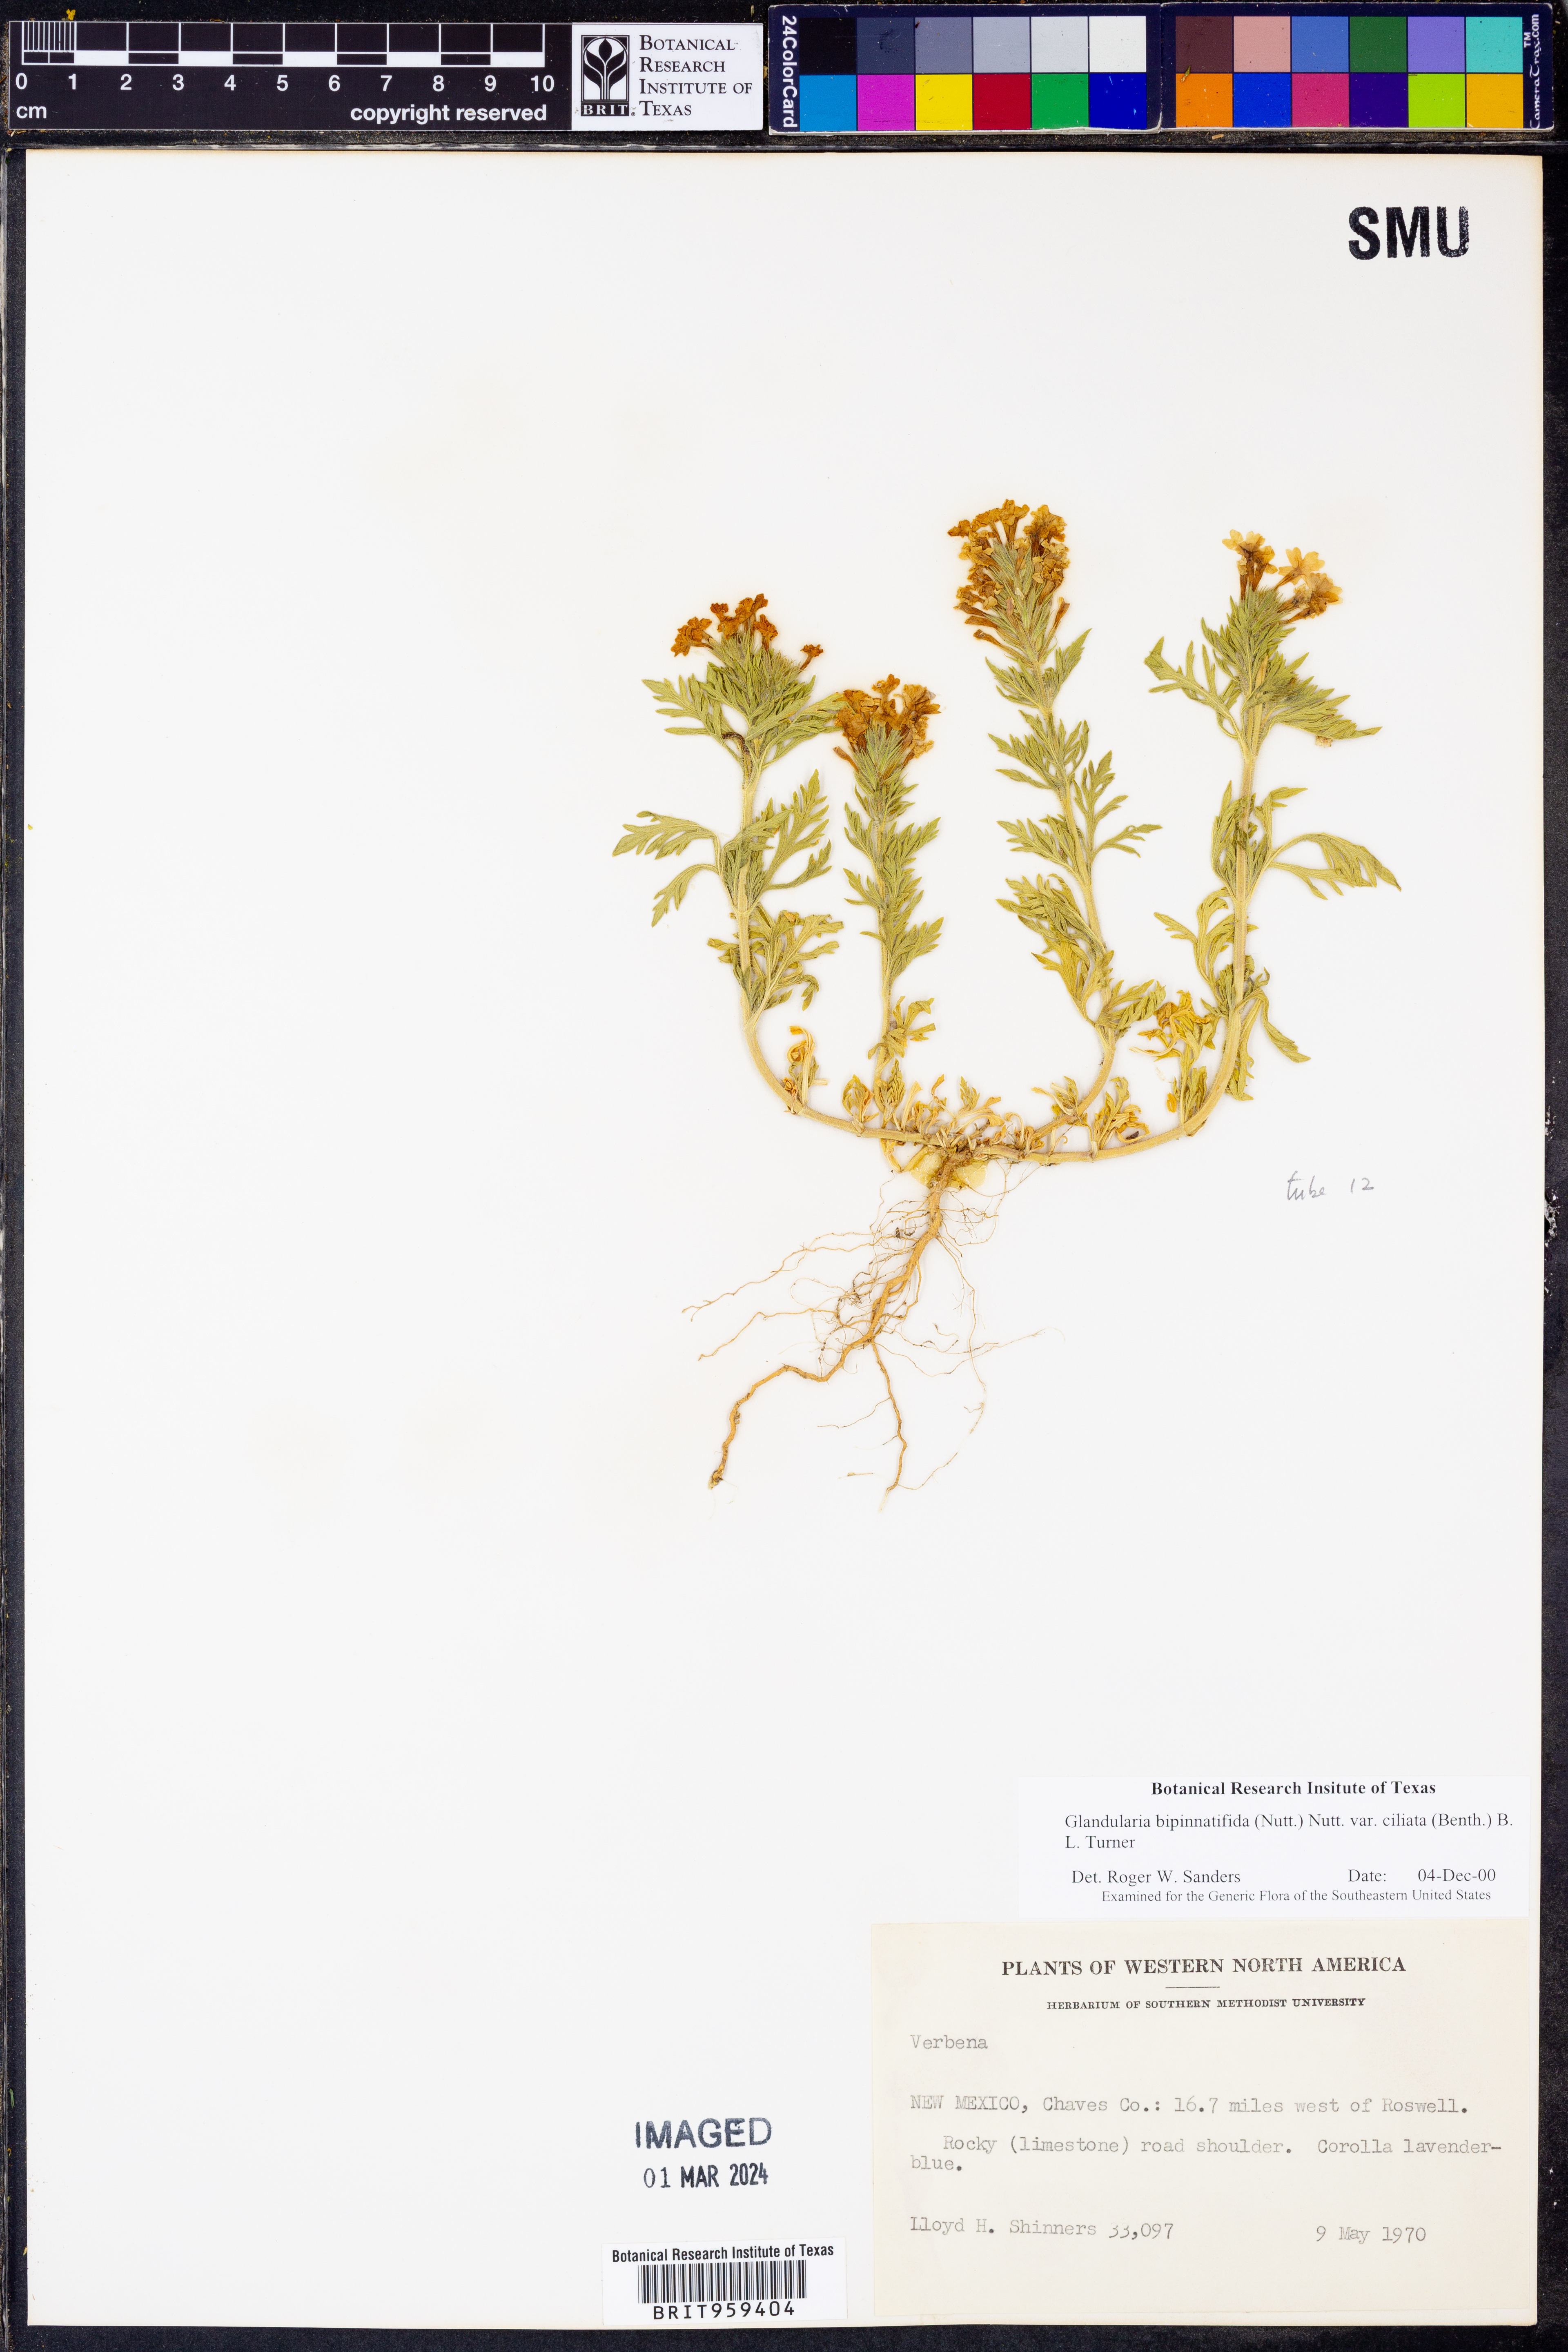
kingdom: Plantae
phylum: Tracheophyta
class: Magnoliopsida
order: Lamiales
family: Verbenaceae
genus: Verbena
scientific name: Verbena bipinnatifida
